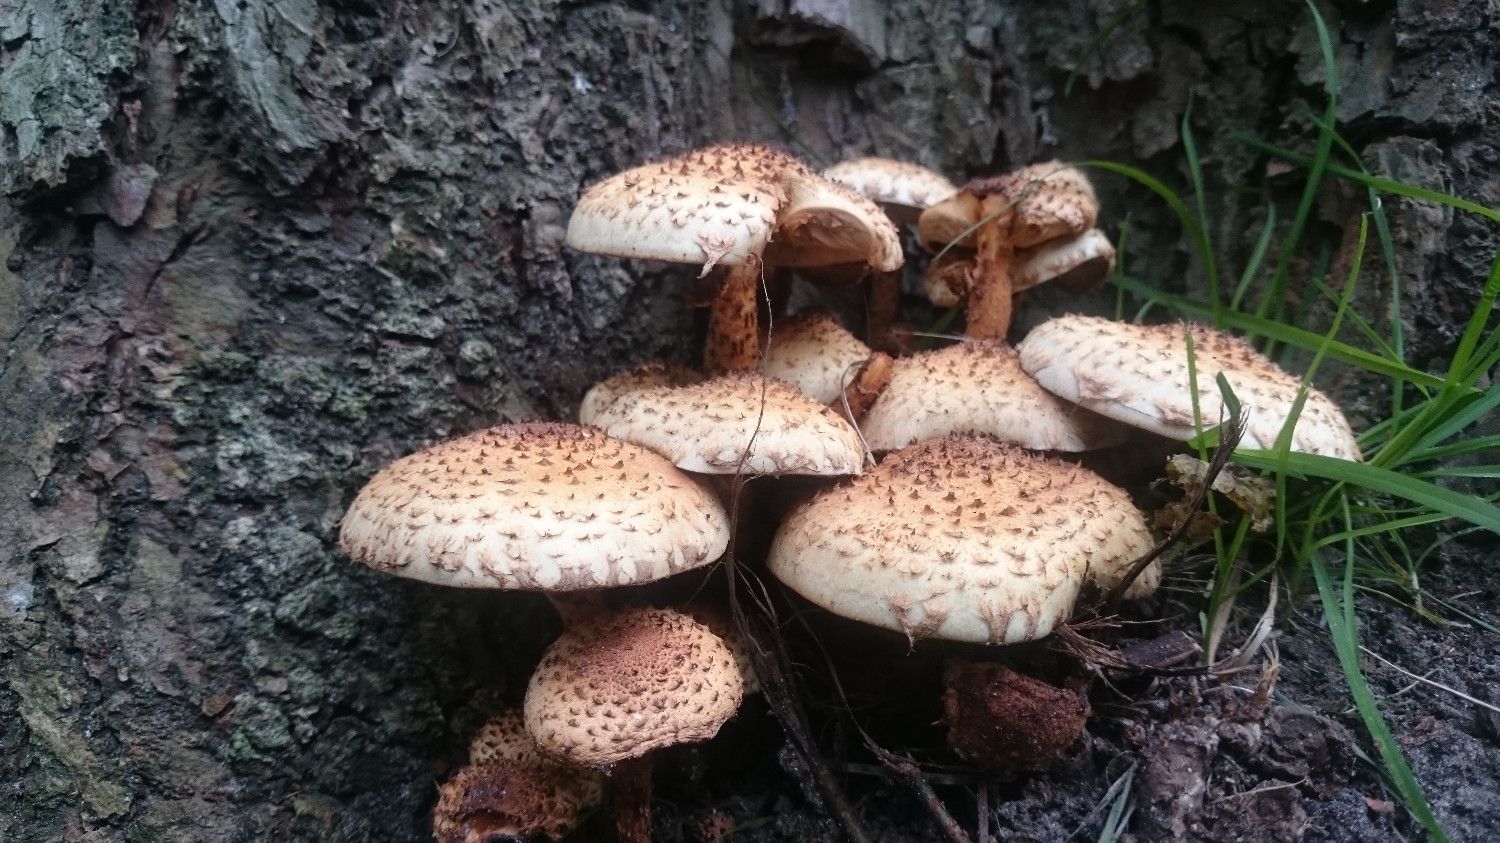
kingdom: Fungi
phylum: Basidiomycota
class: Agaricomycetes
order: Agaricales
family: Strophariaceae
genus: Pholiota
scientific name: Pholiota squarrosa
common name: krumskællet skælhat
